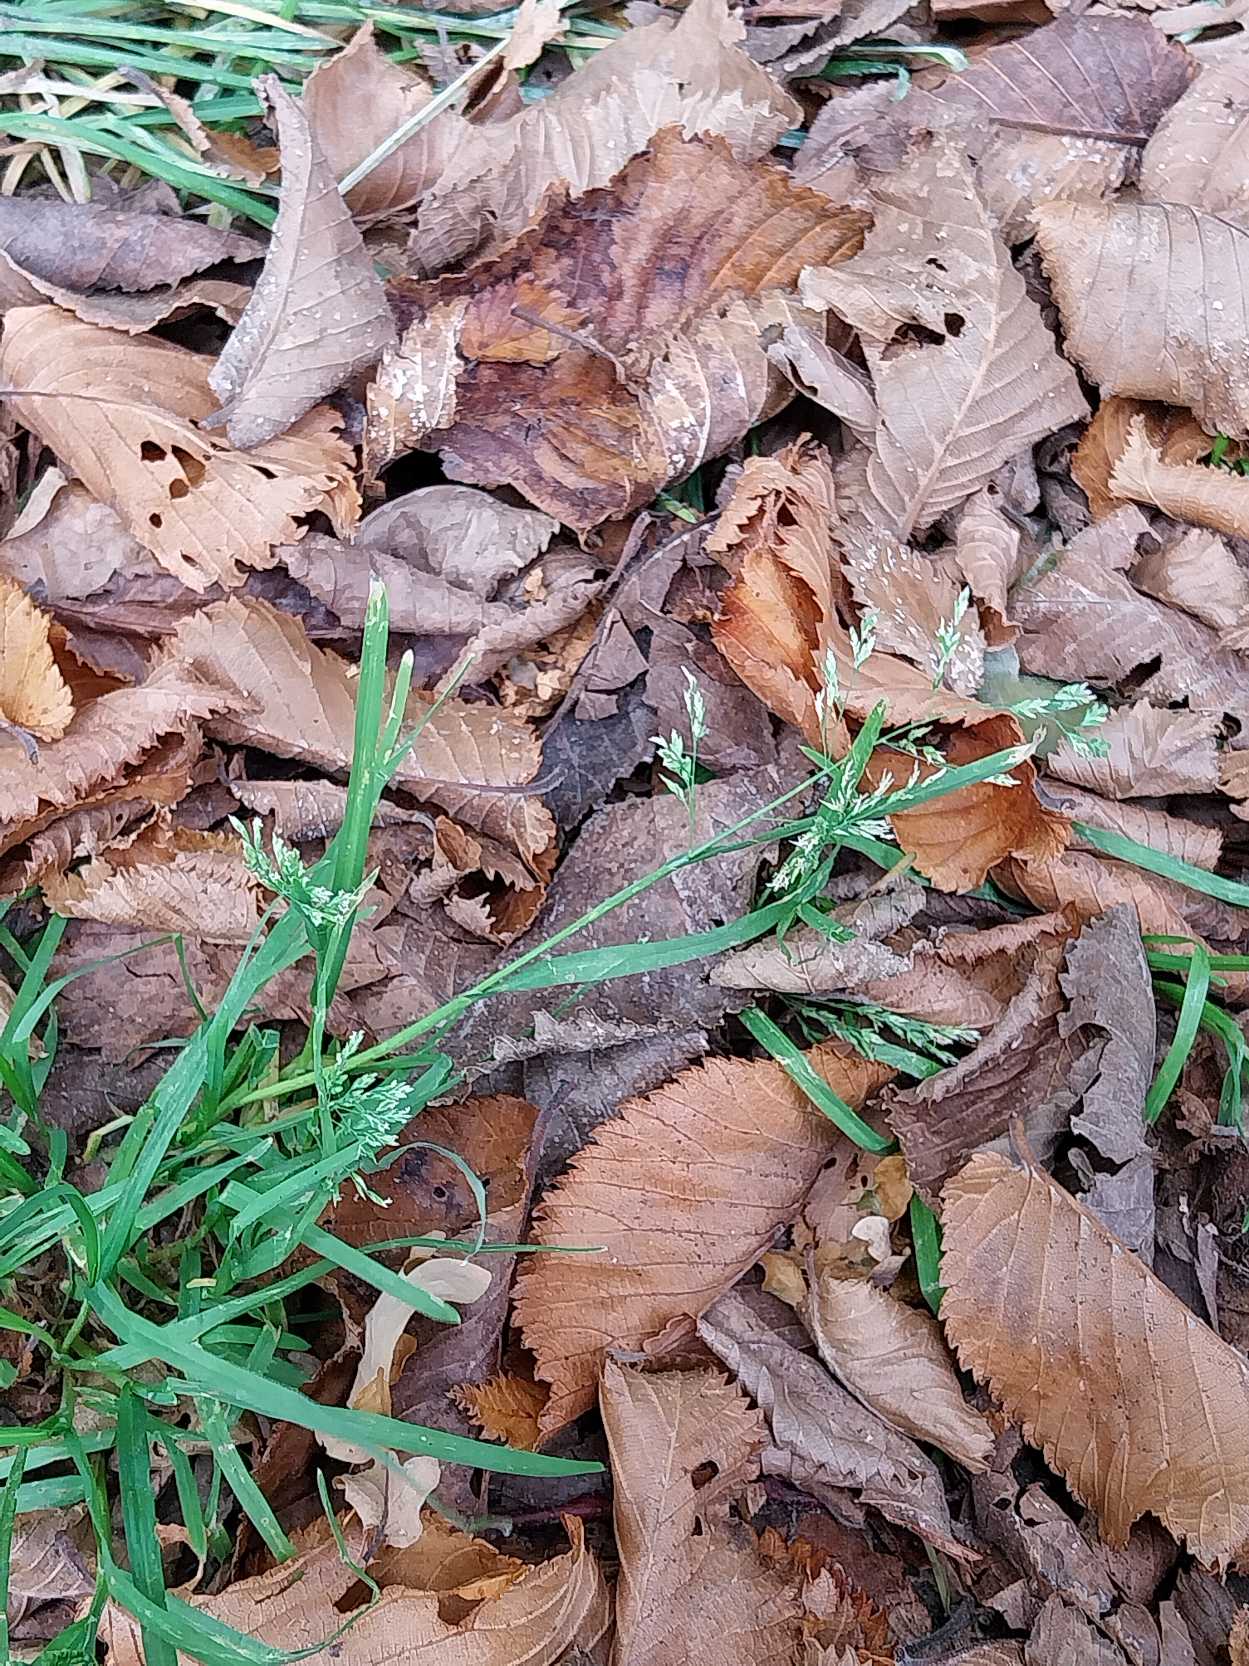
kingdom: Plantae
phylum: Tracheophyta
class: Liliopsida
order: Poales
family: Poaceae
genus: Poa
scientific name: Poa annua
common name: Enårig rapgræs
